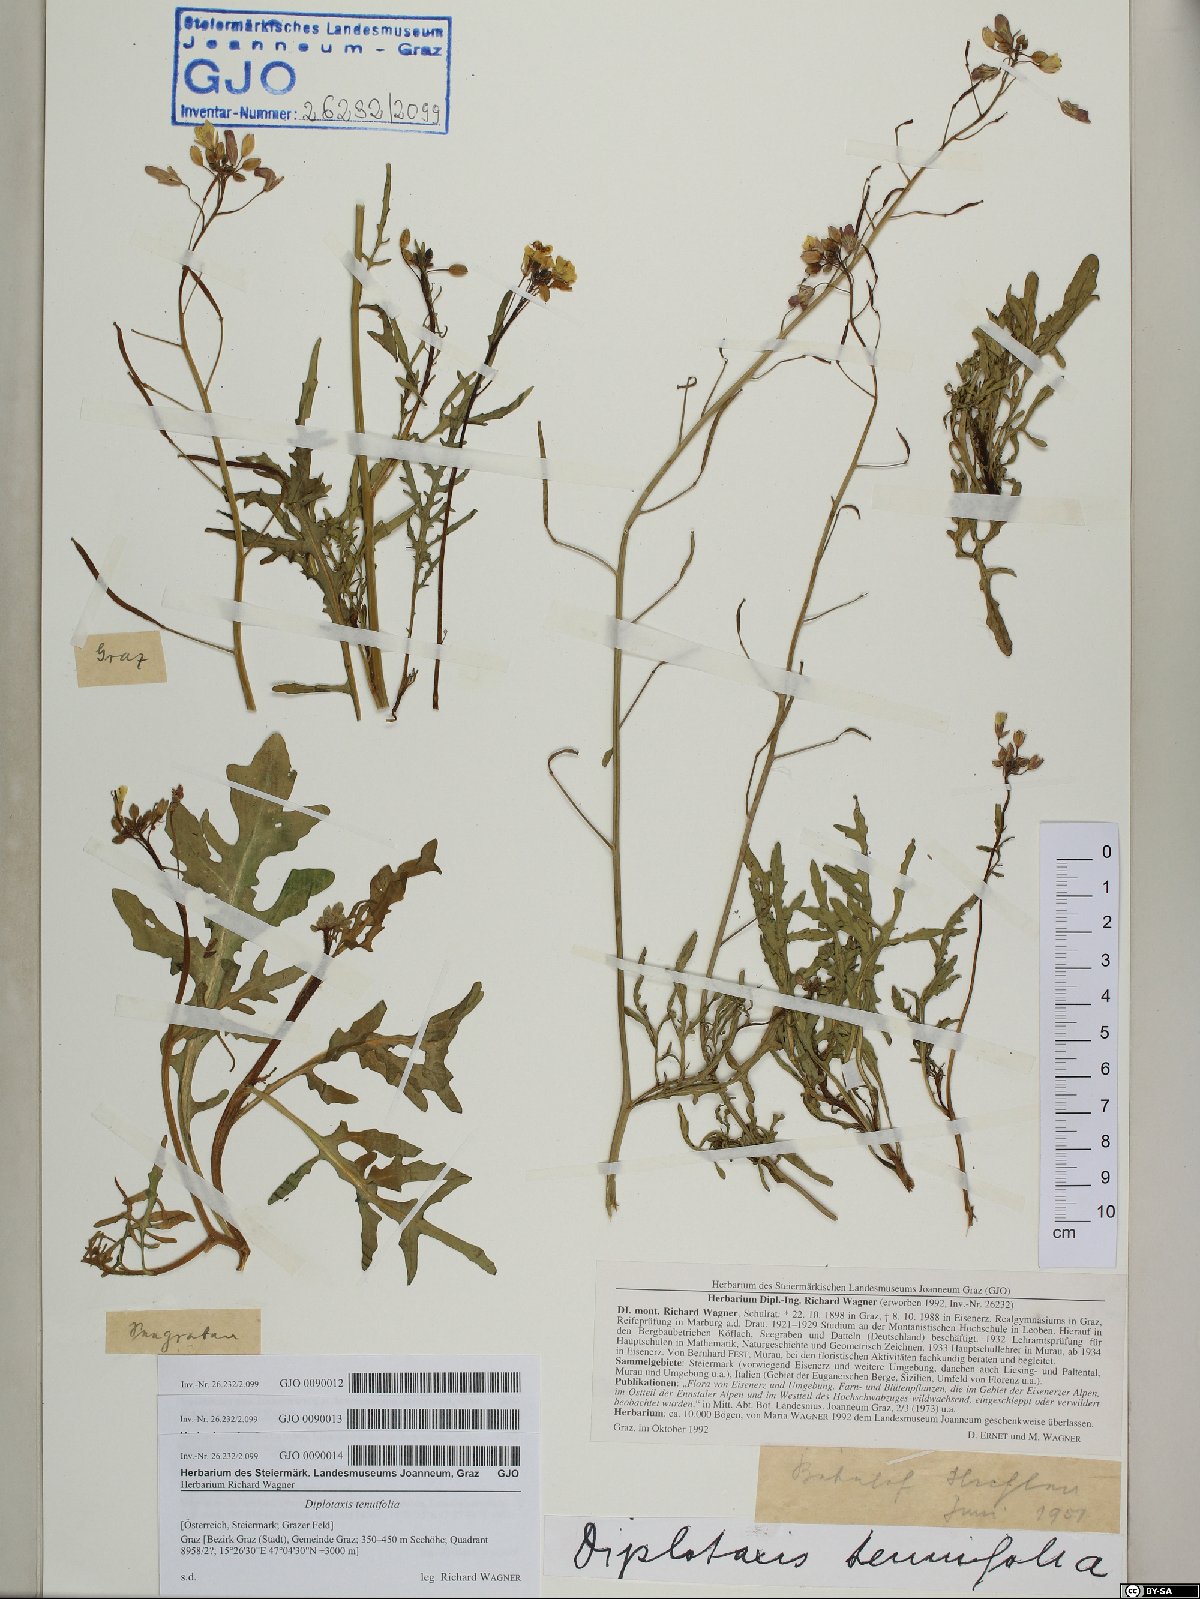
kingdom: Plantae
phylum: Tracheophyta
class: Magnoliopsida
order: Brassicales
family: Brassicaceae
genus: Diplotaxis
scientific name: Diplotaxis tenuifolia
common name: Perennial wall-rocket
